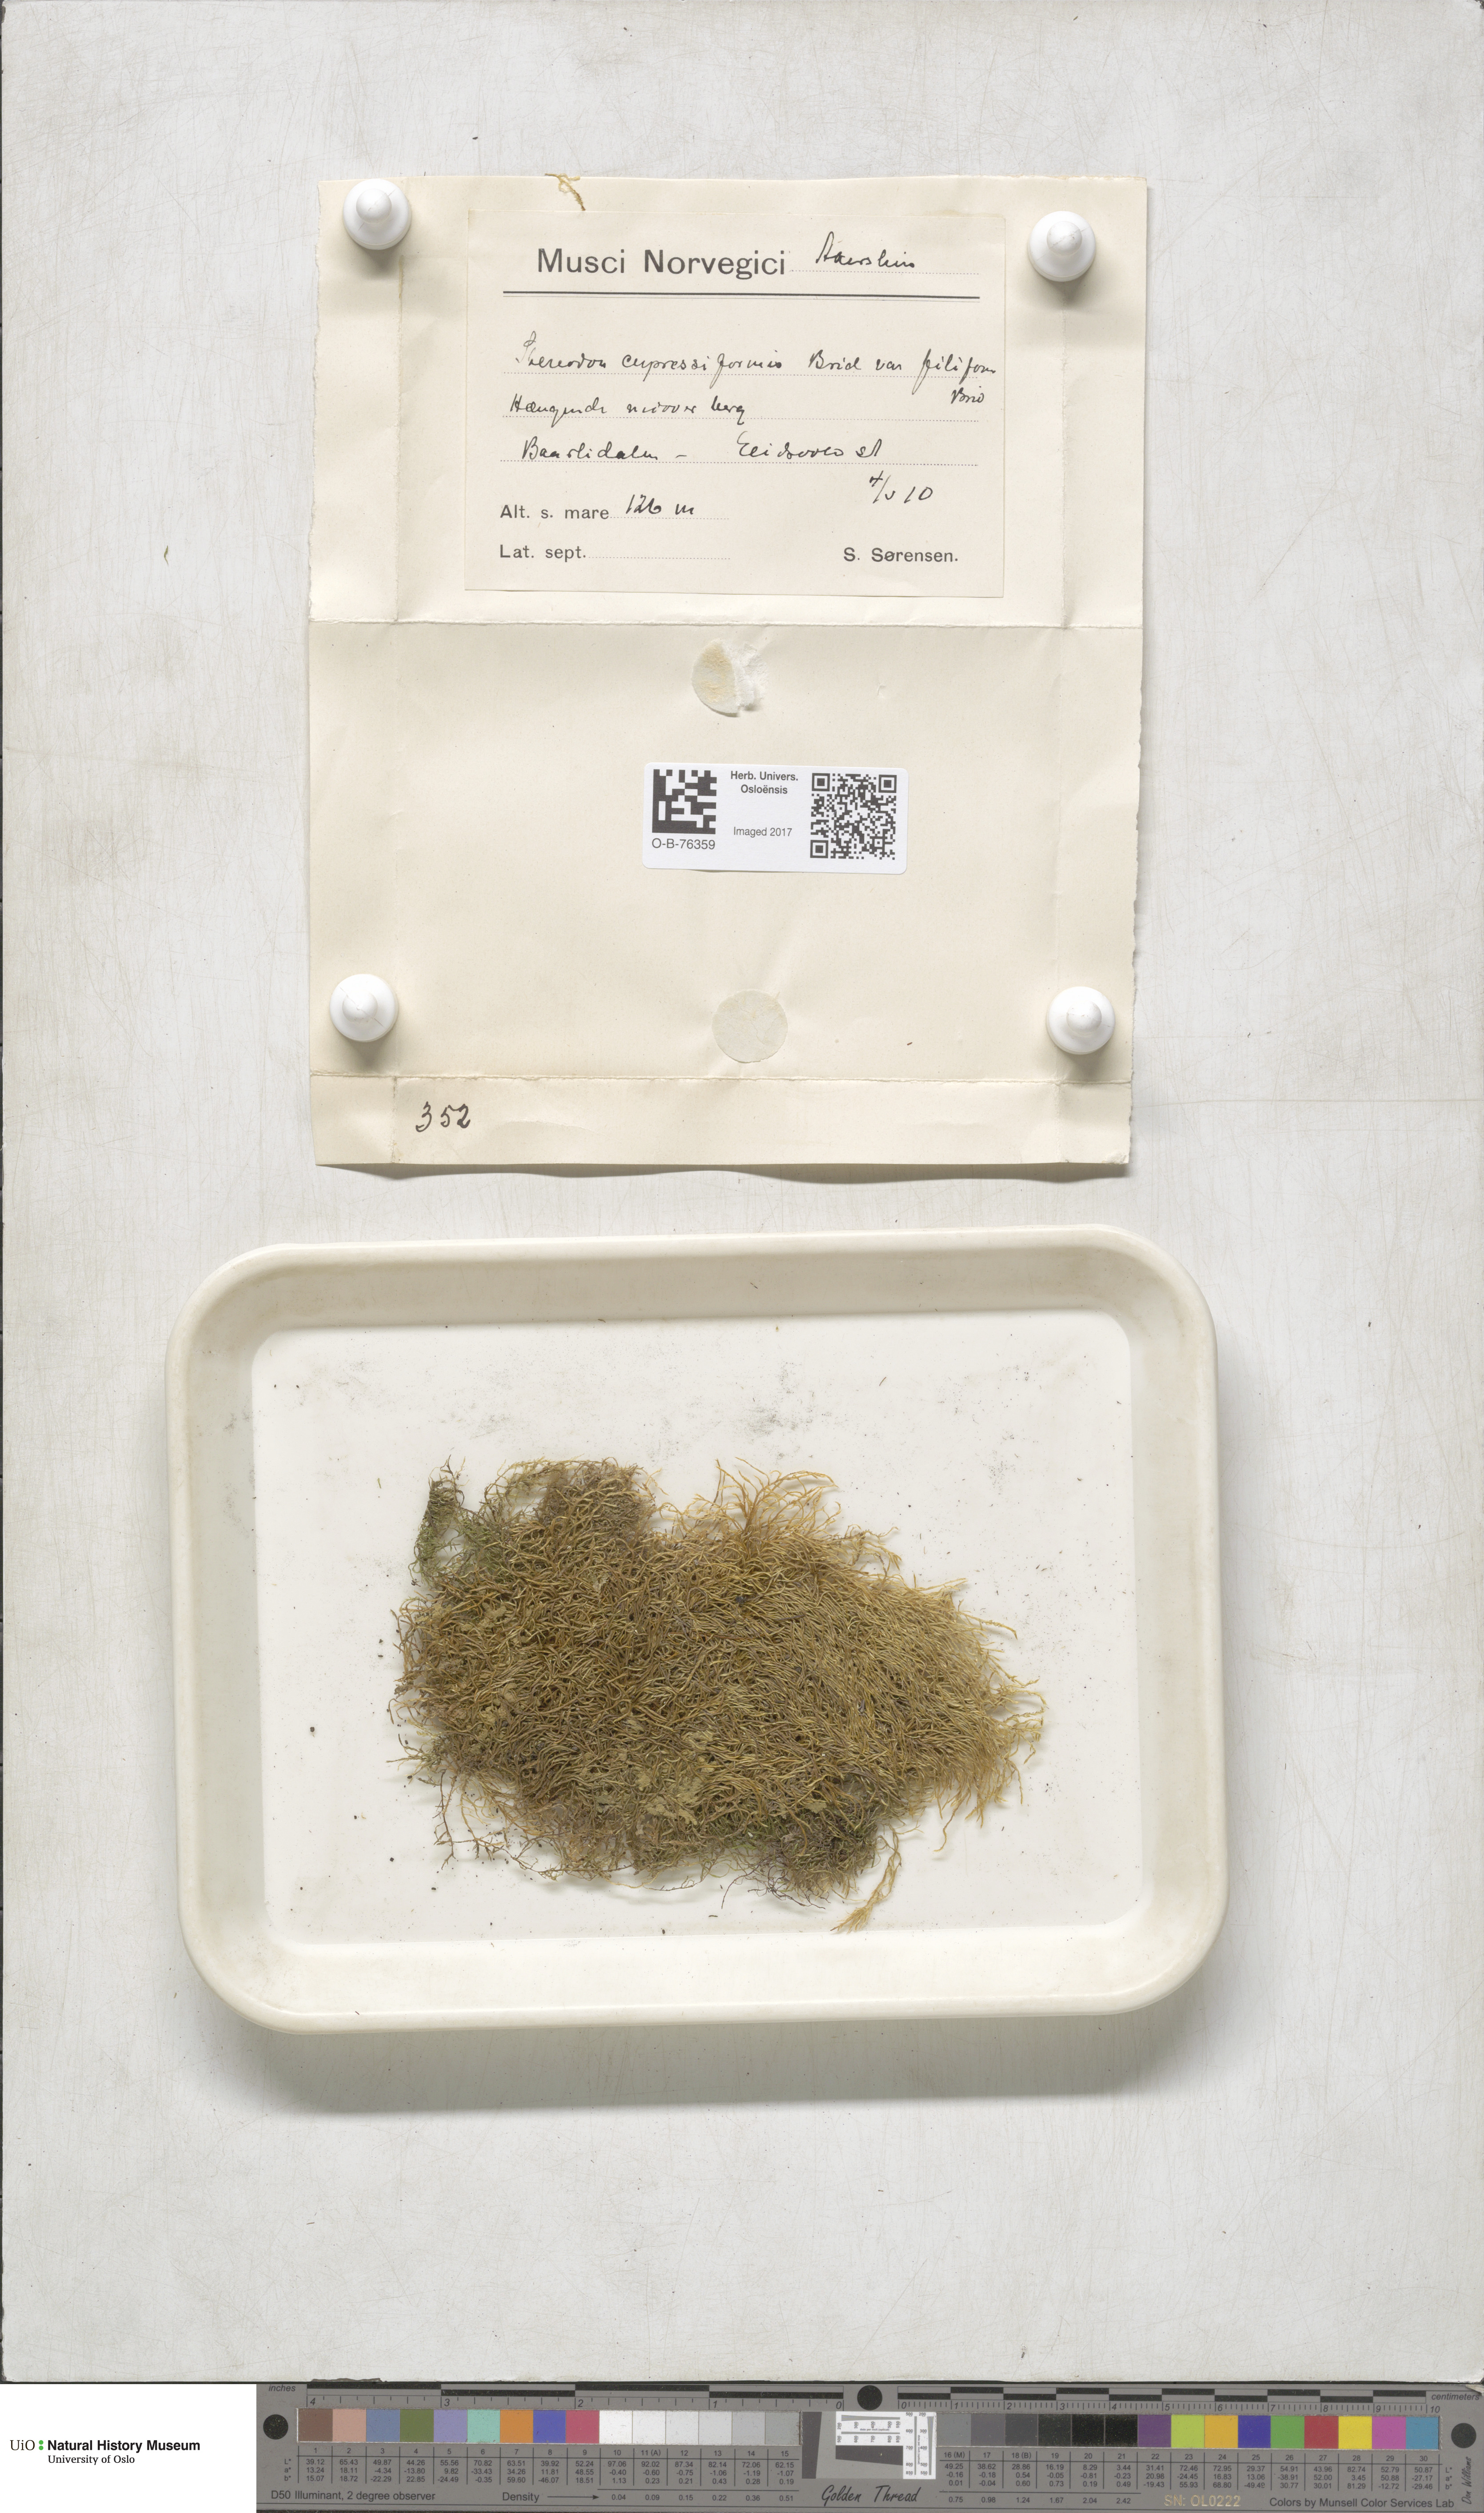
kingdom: Plantae
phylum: Bryophyta
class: Bryopsida
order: Hypnales
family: Hypnaceae
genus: Hypnum
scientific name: Hypnum cupressiforme
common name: Cypress-leaved plait-moss
